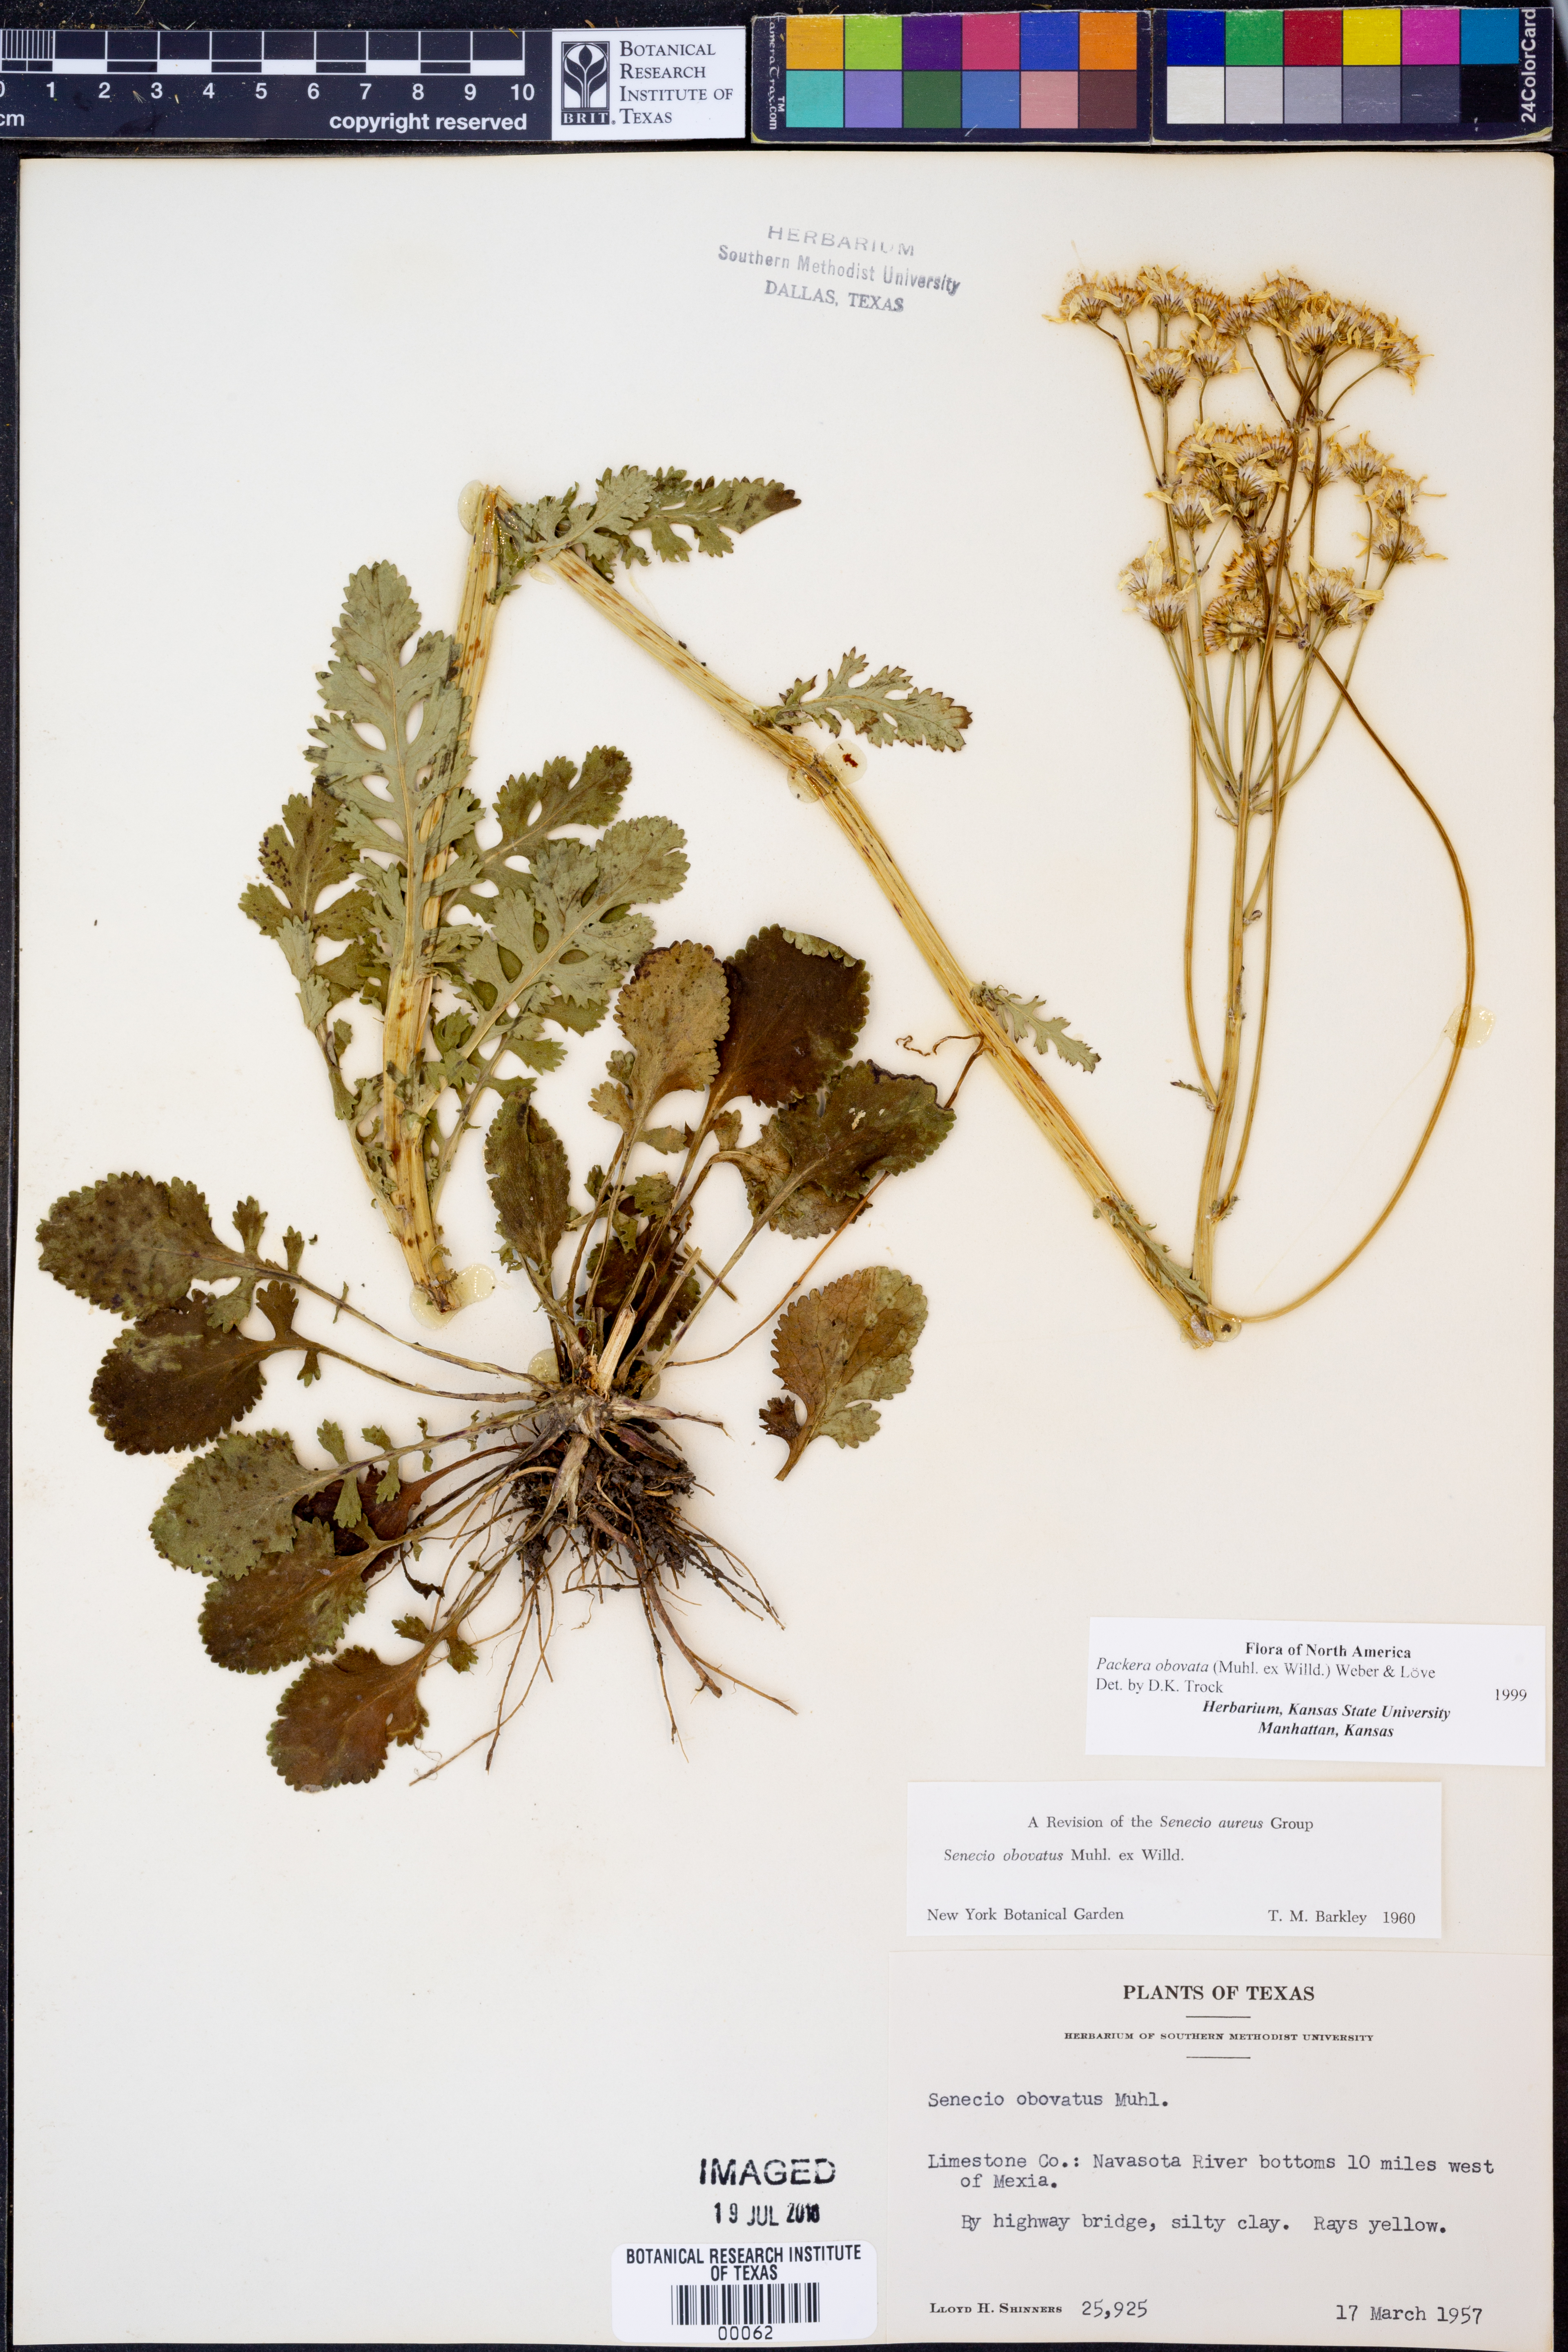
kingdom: Plantae
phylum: Tracheophyta
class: Magnoliopsida
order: Asterales
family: Asteraceae
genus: Packera
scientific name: Packera obovata
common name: Round-leaf ragwort
